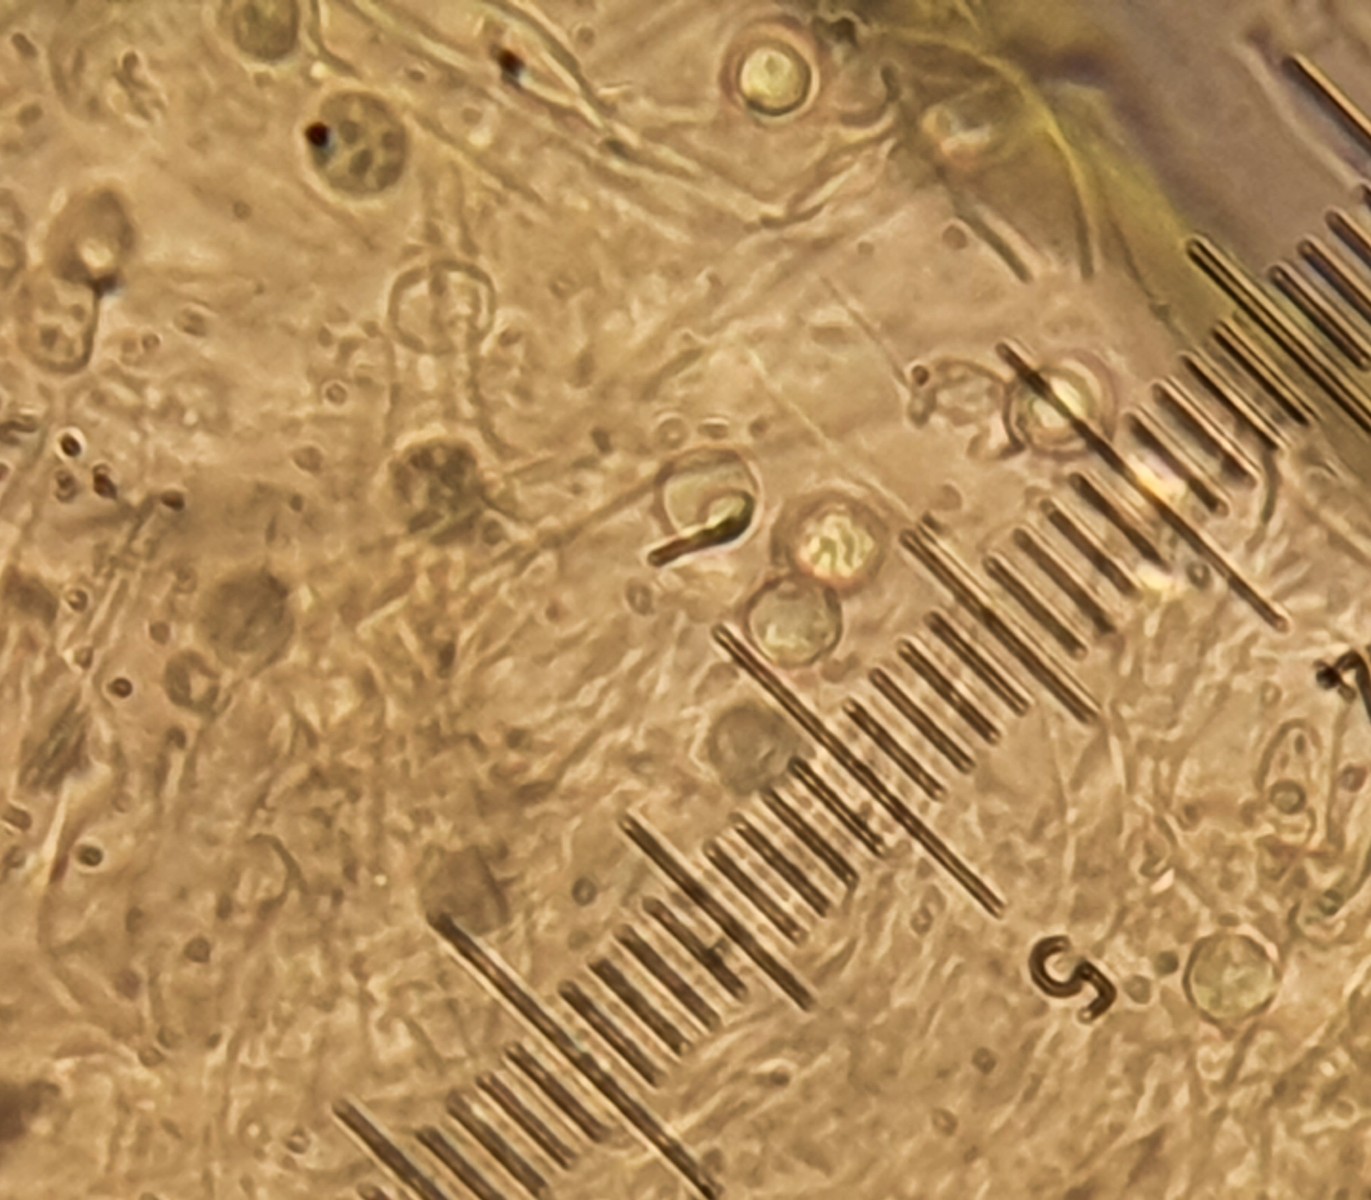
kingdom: Fungi
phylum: Basidiomycota
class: Agaricomycetes
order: Agaricales
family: Lyophyllaceae
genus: Lyophyllum
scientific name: Lyophyllum decastes
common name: Clustered domecap
